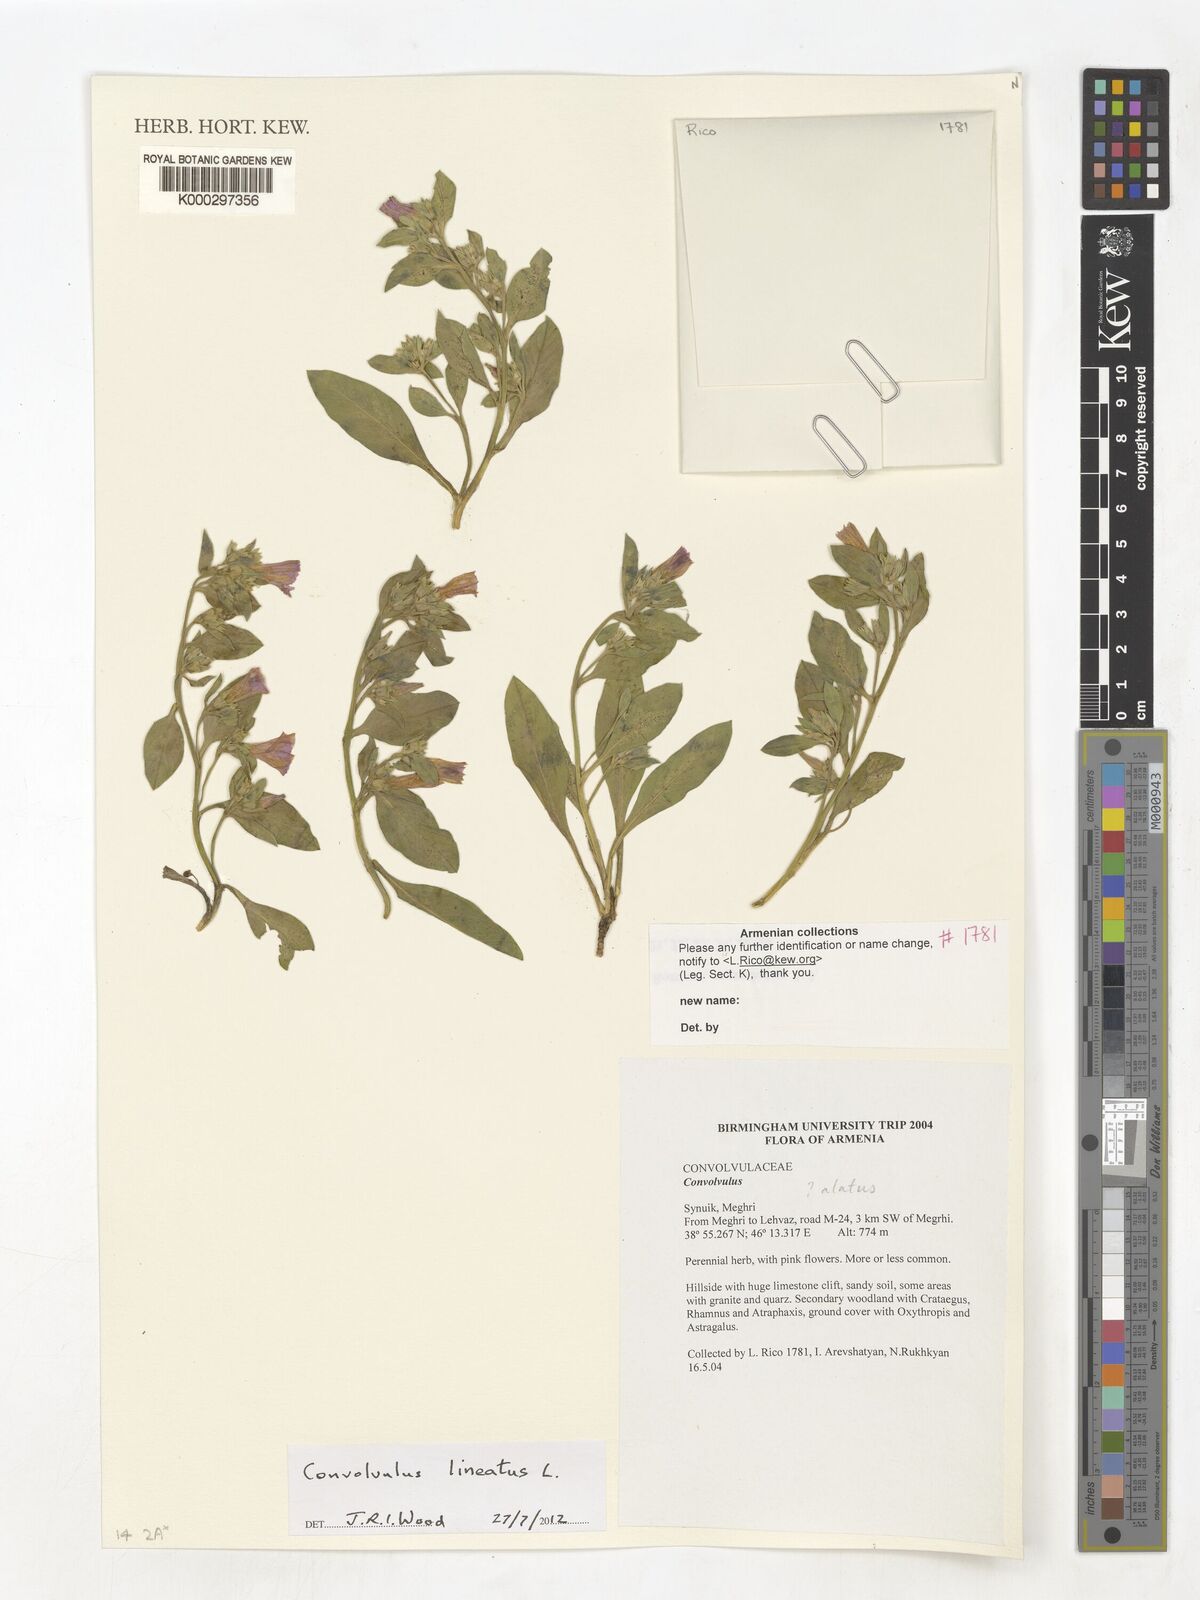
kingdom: Plantae
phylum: Tracheophyta
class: Magnoliopsida
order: Solanales
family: Convolvulaceae
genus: Operculina
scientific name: Operculina hamiltonii
